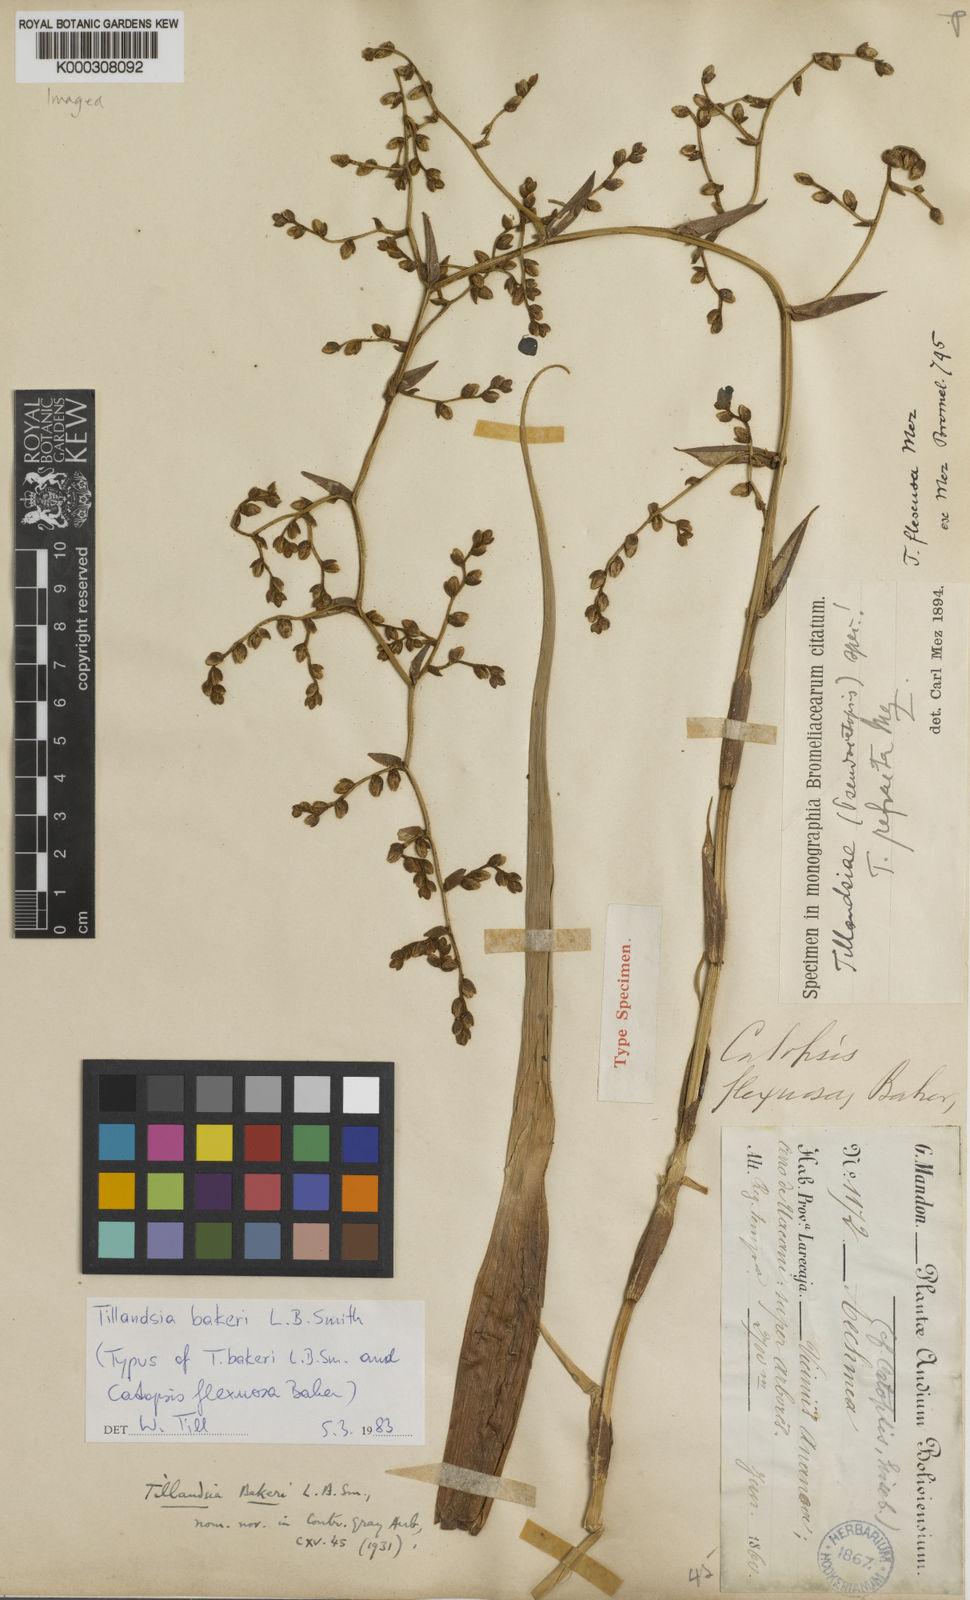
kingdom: Plantae
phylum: Tracheophyta
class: Liliopsida
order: Poales
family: Bromeliaceae
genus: Tillandsia
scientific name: Tillandsia
